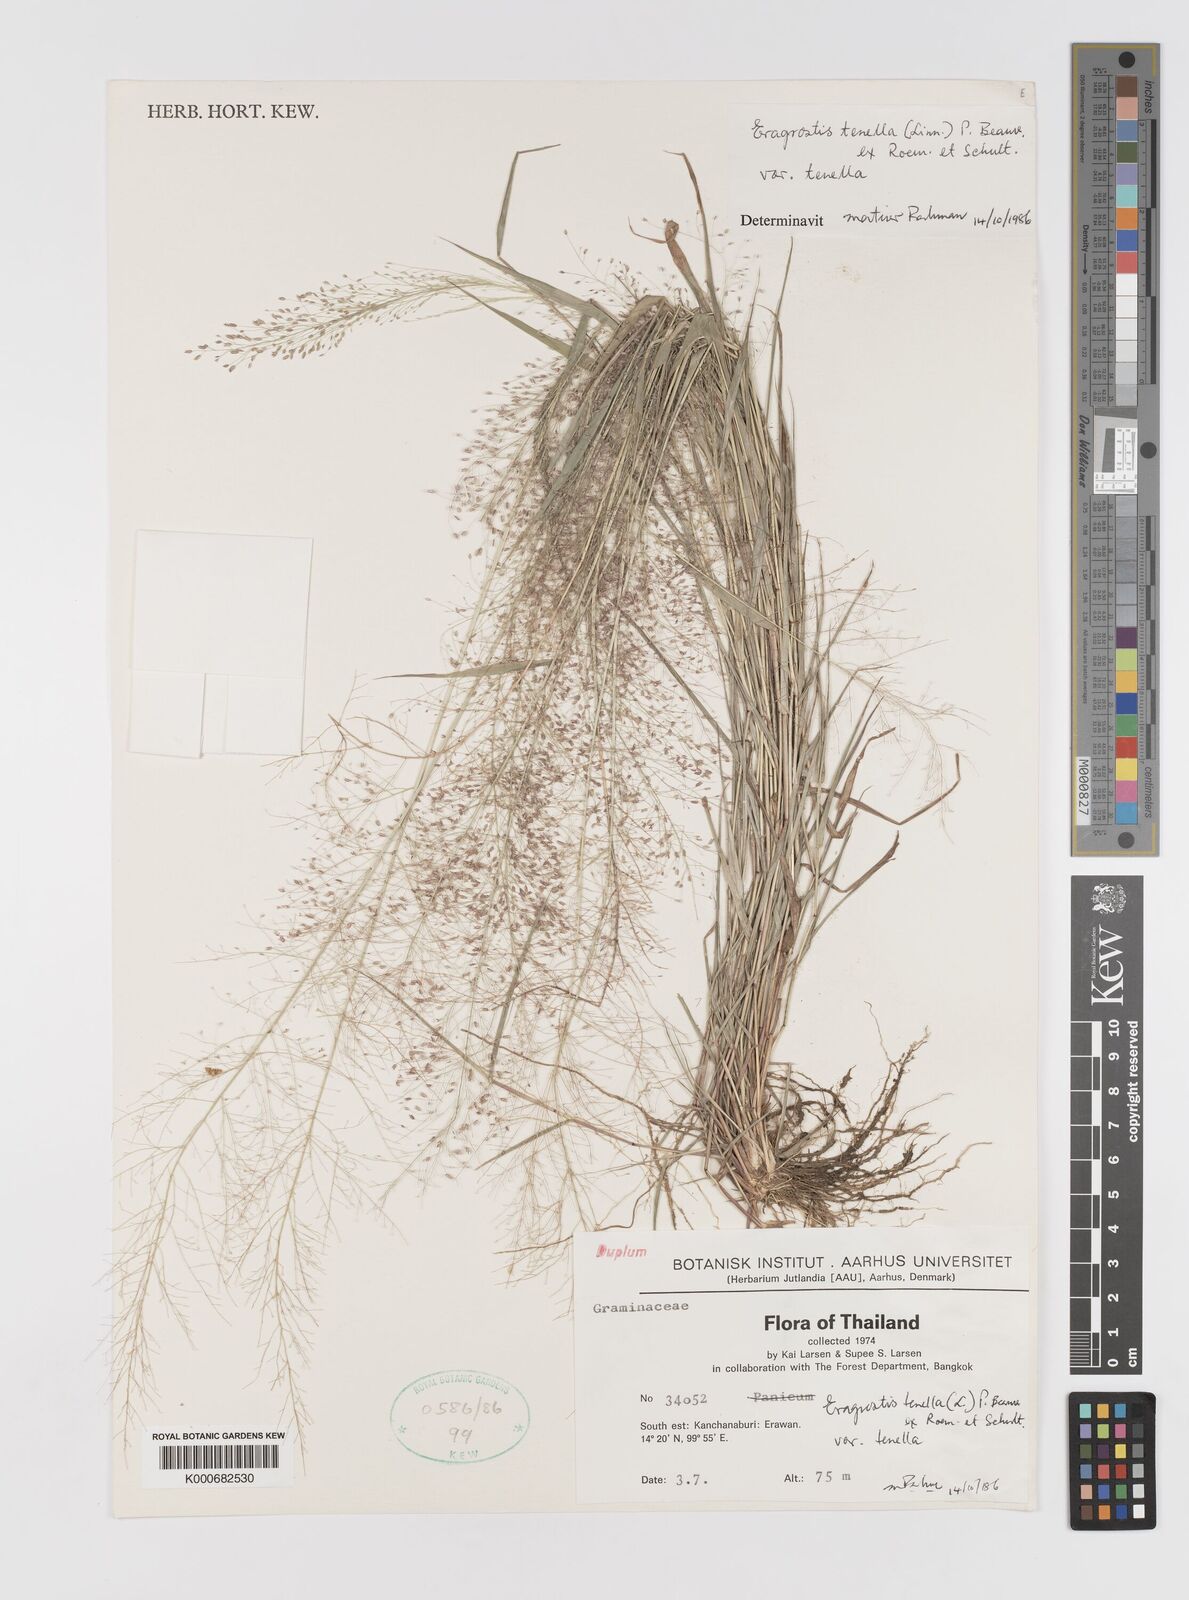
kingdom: Plantae
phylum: Tracheophyta
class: Liliopsida
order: Poales
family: Poaceae
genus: Eragrostis
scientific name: Eragrostis tenella
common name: Japanese lovegrass
